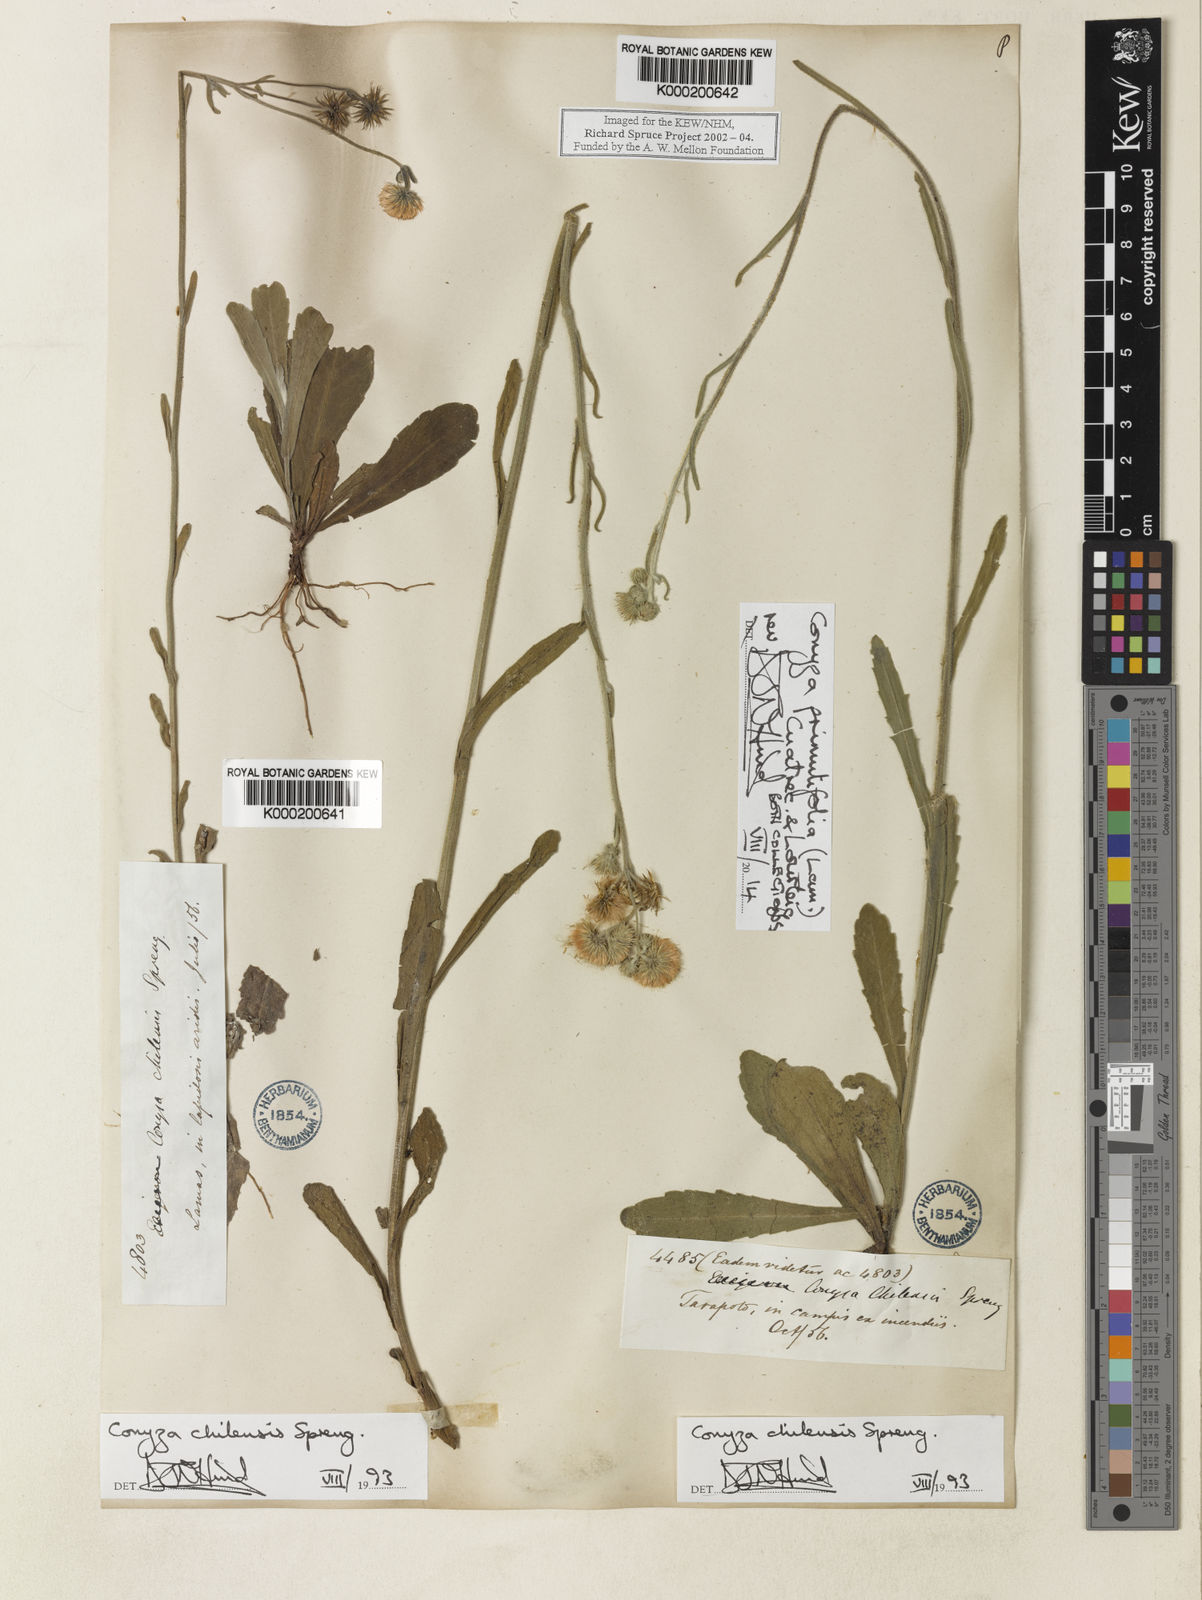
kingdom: Plantae
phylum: Tracheophyta
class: Magnoliopsida
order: Asterales
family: Asteraceae
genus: Erigeron
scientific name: Erigeron primulifolius
